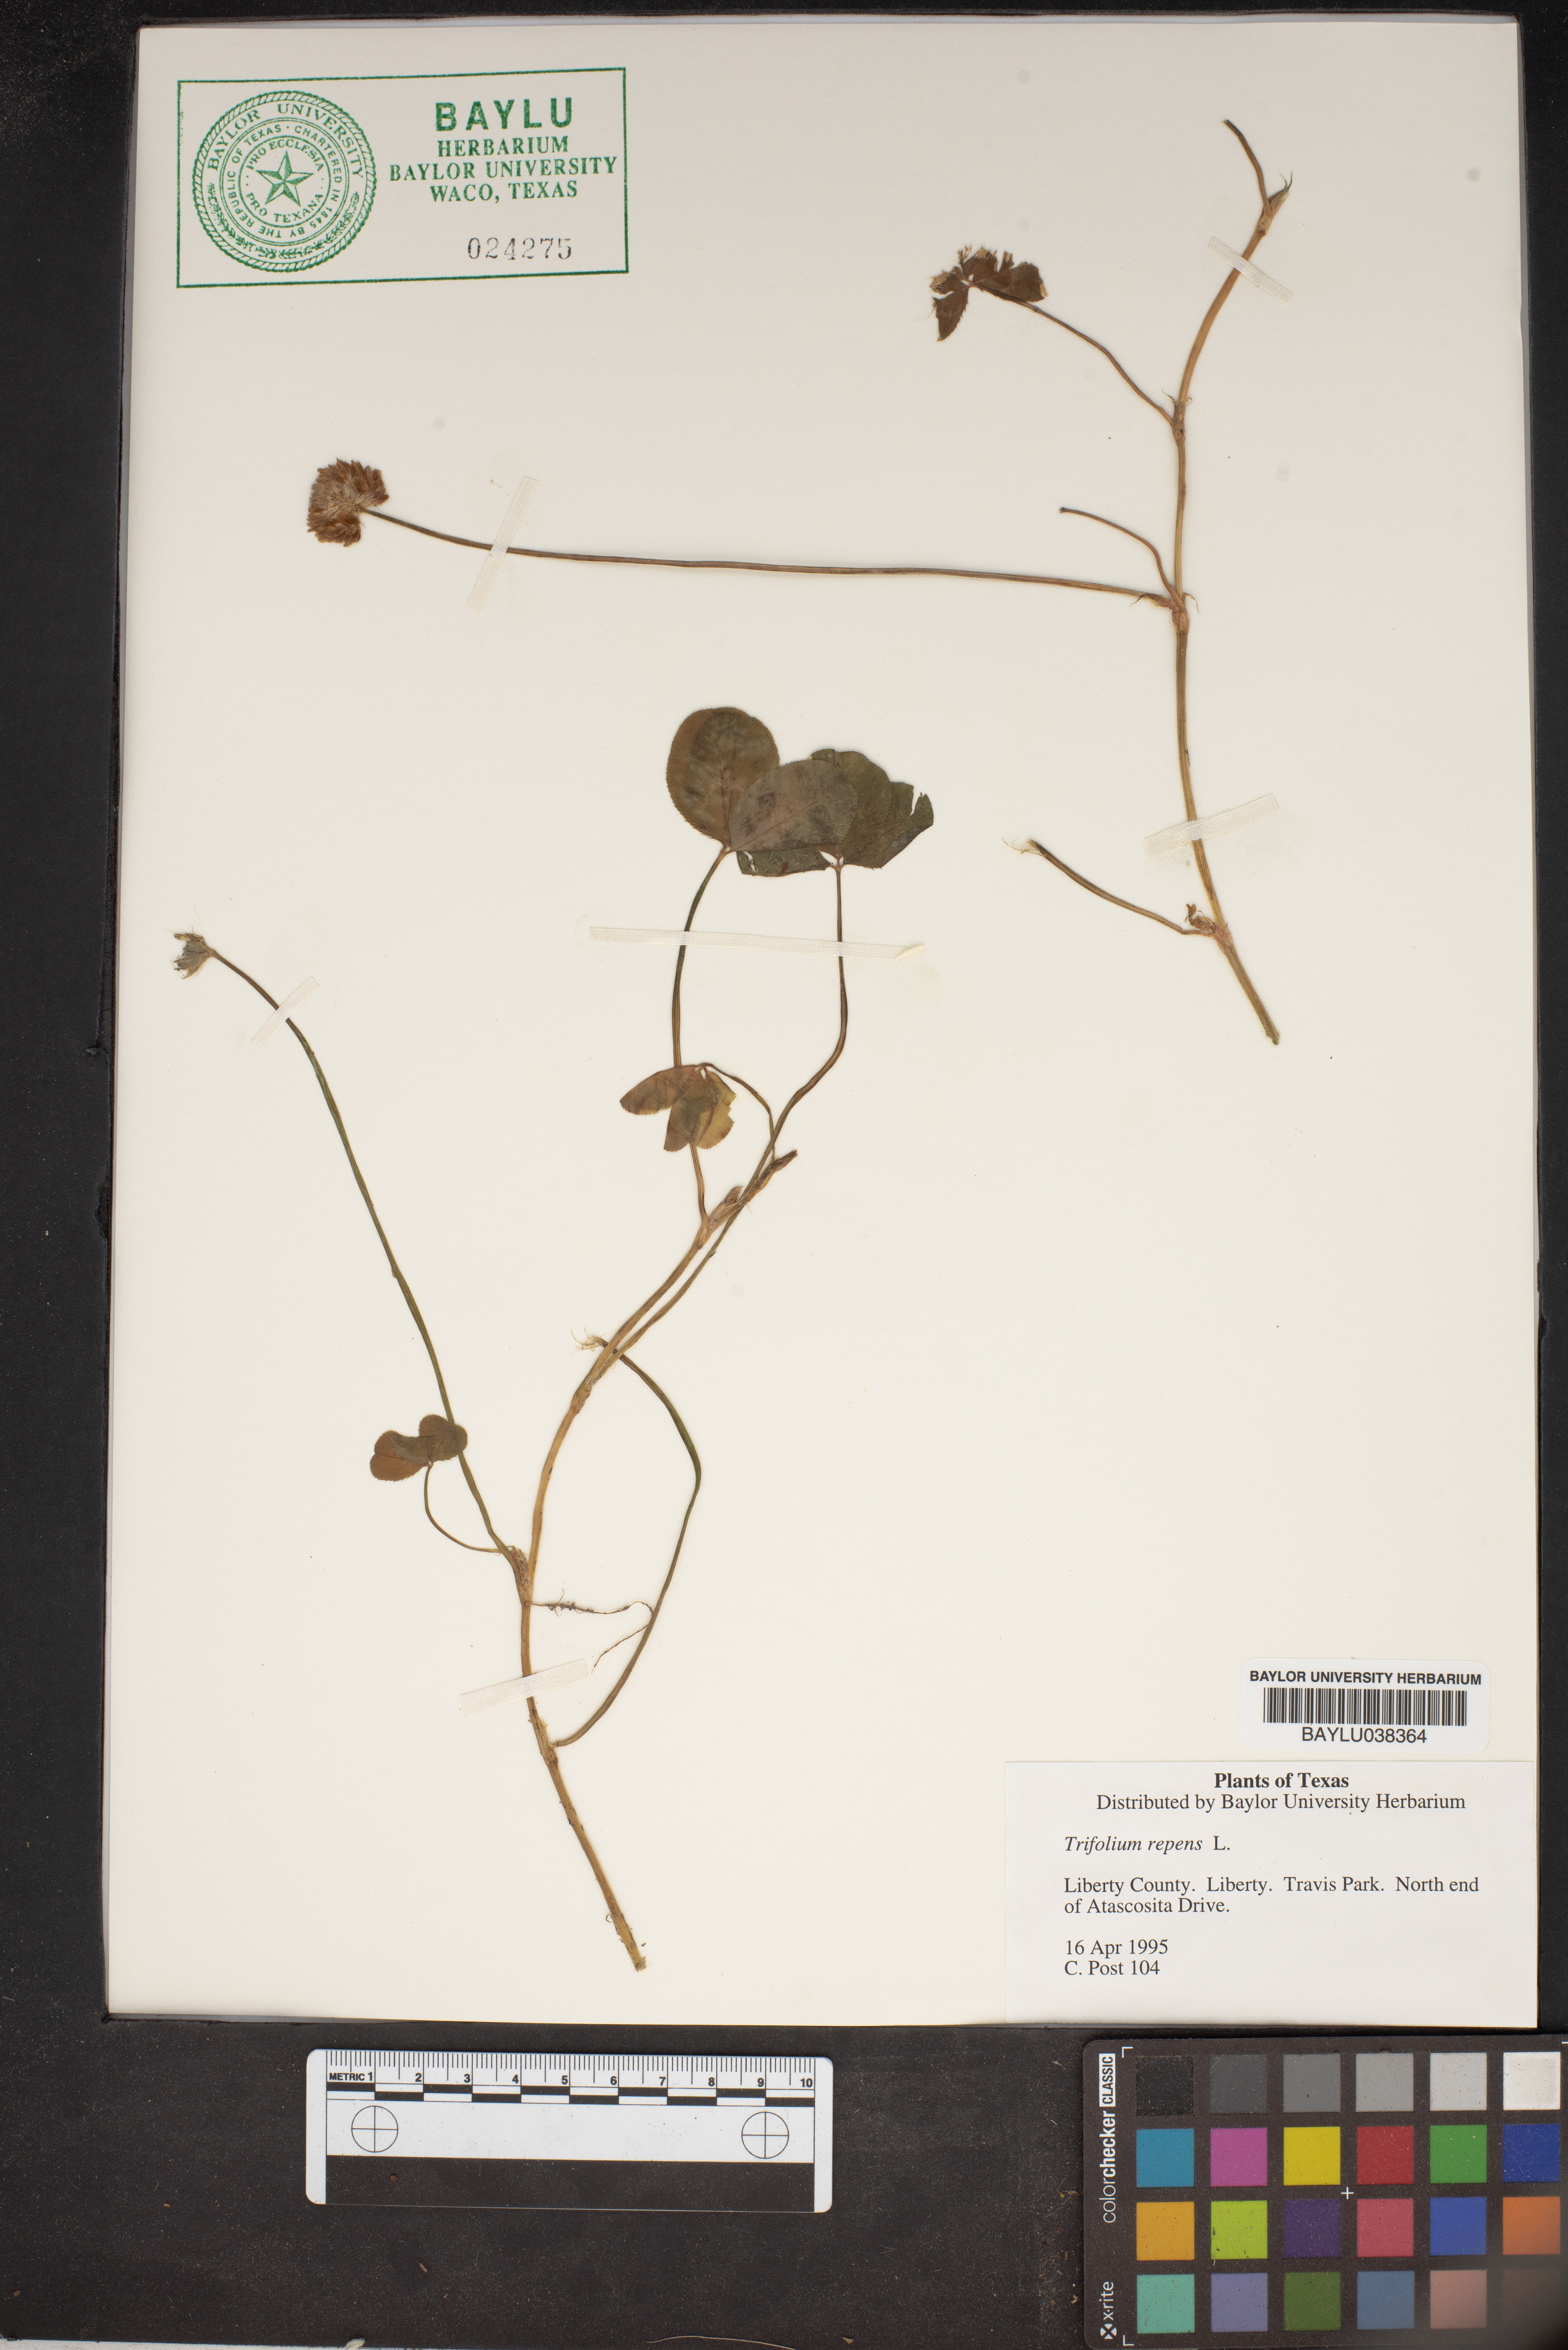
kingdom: Plantae
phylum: Tracheophyta
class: Magnoliopsida
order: Fabales
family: Fabaceae
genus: Trifolium
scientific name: Trifolium repens
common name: White clover
